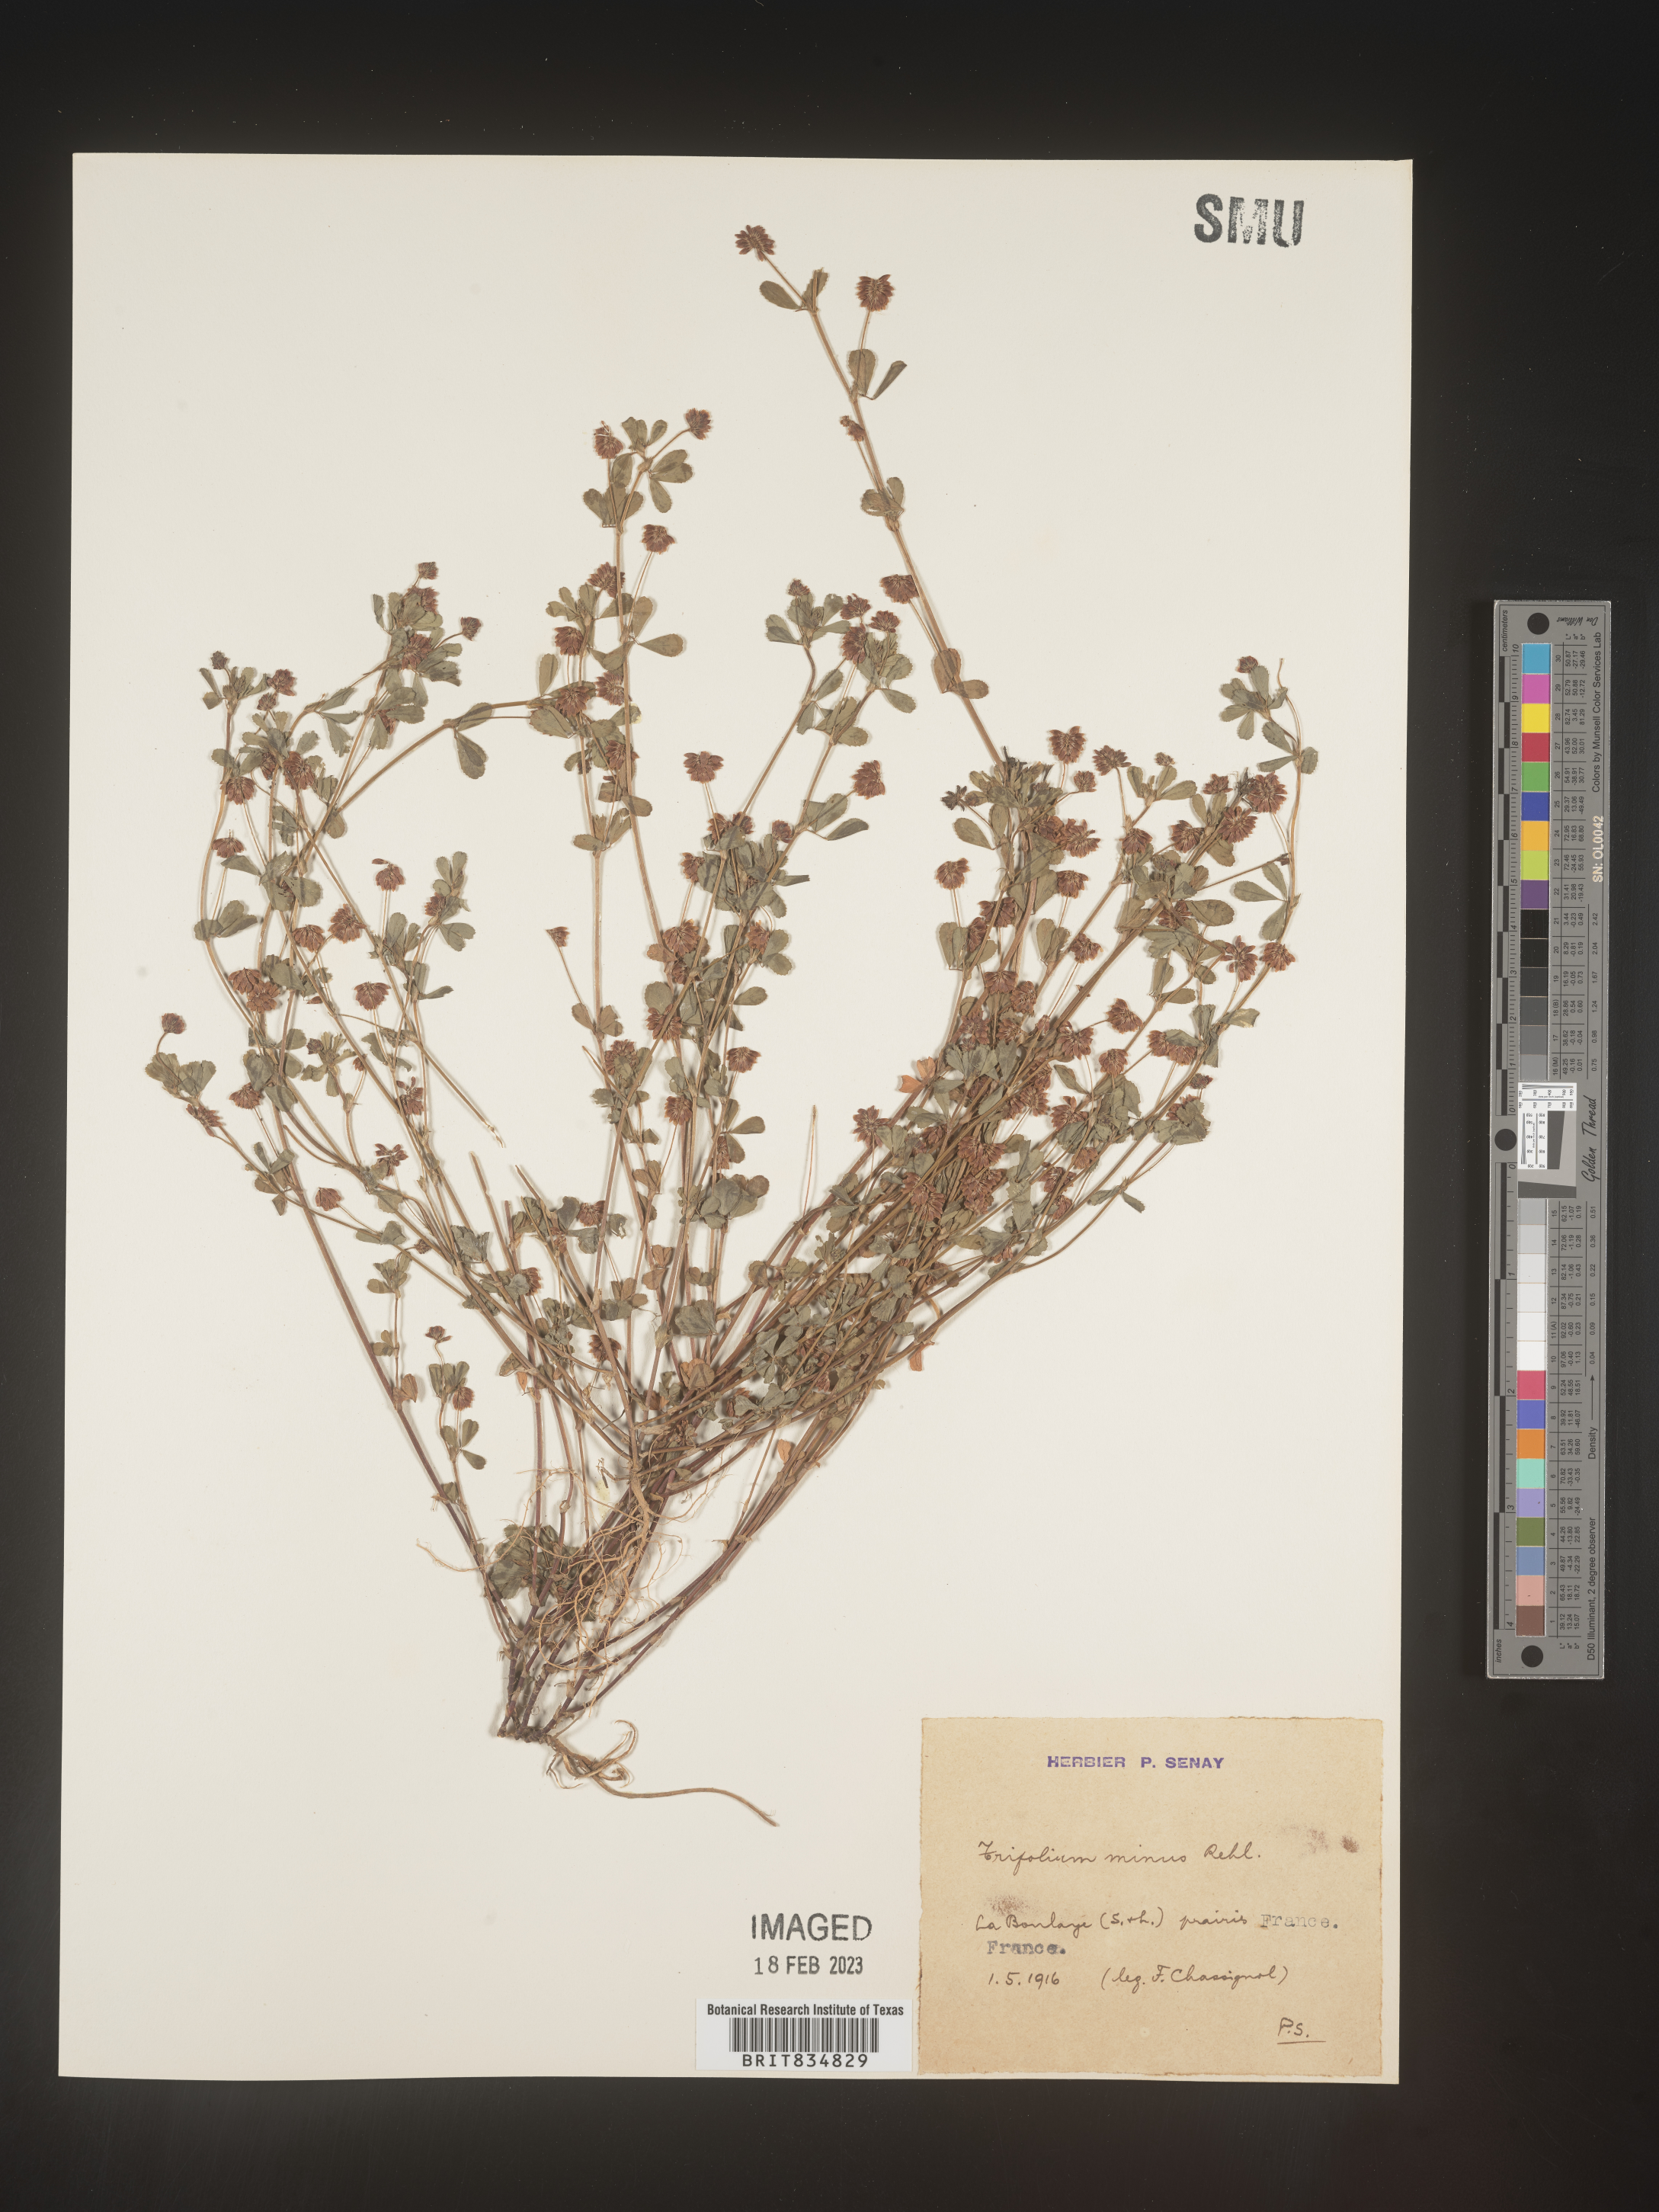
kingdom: Plantae
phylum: Tracheophyta
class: Magnoliopsida
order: Fabales
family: Fabaceae
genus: Trifolium
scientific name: Trifolium
